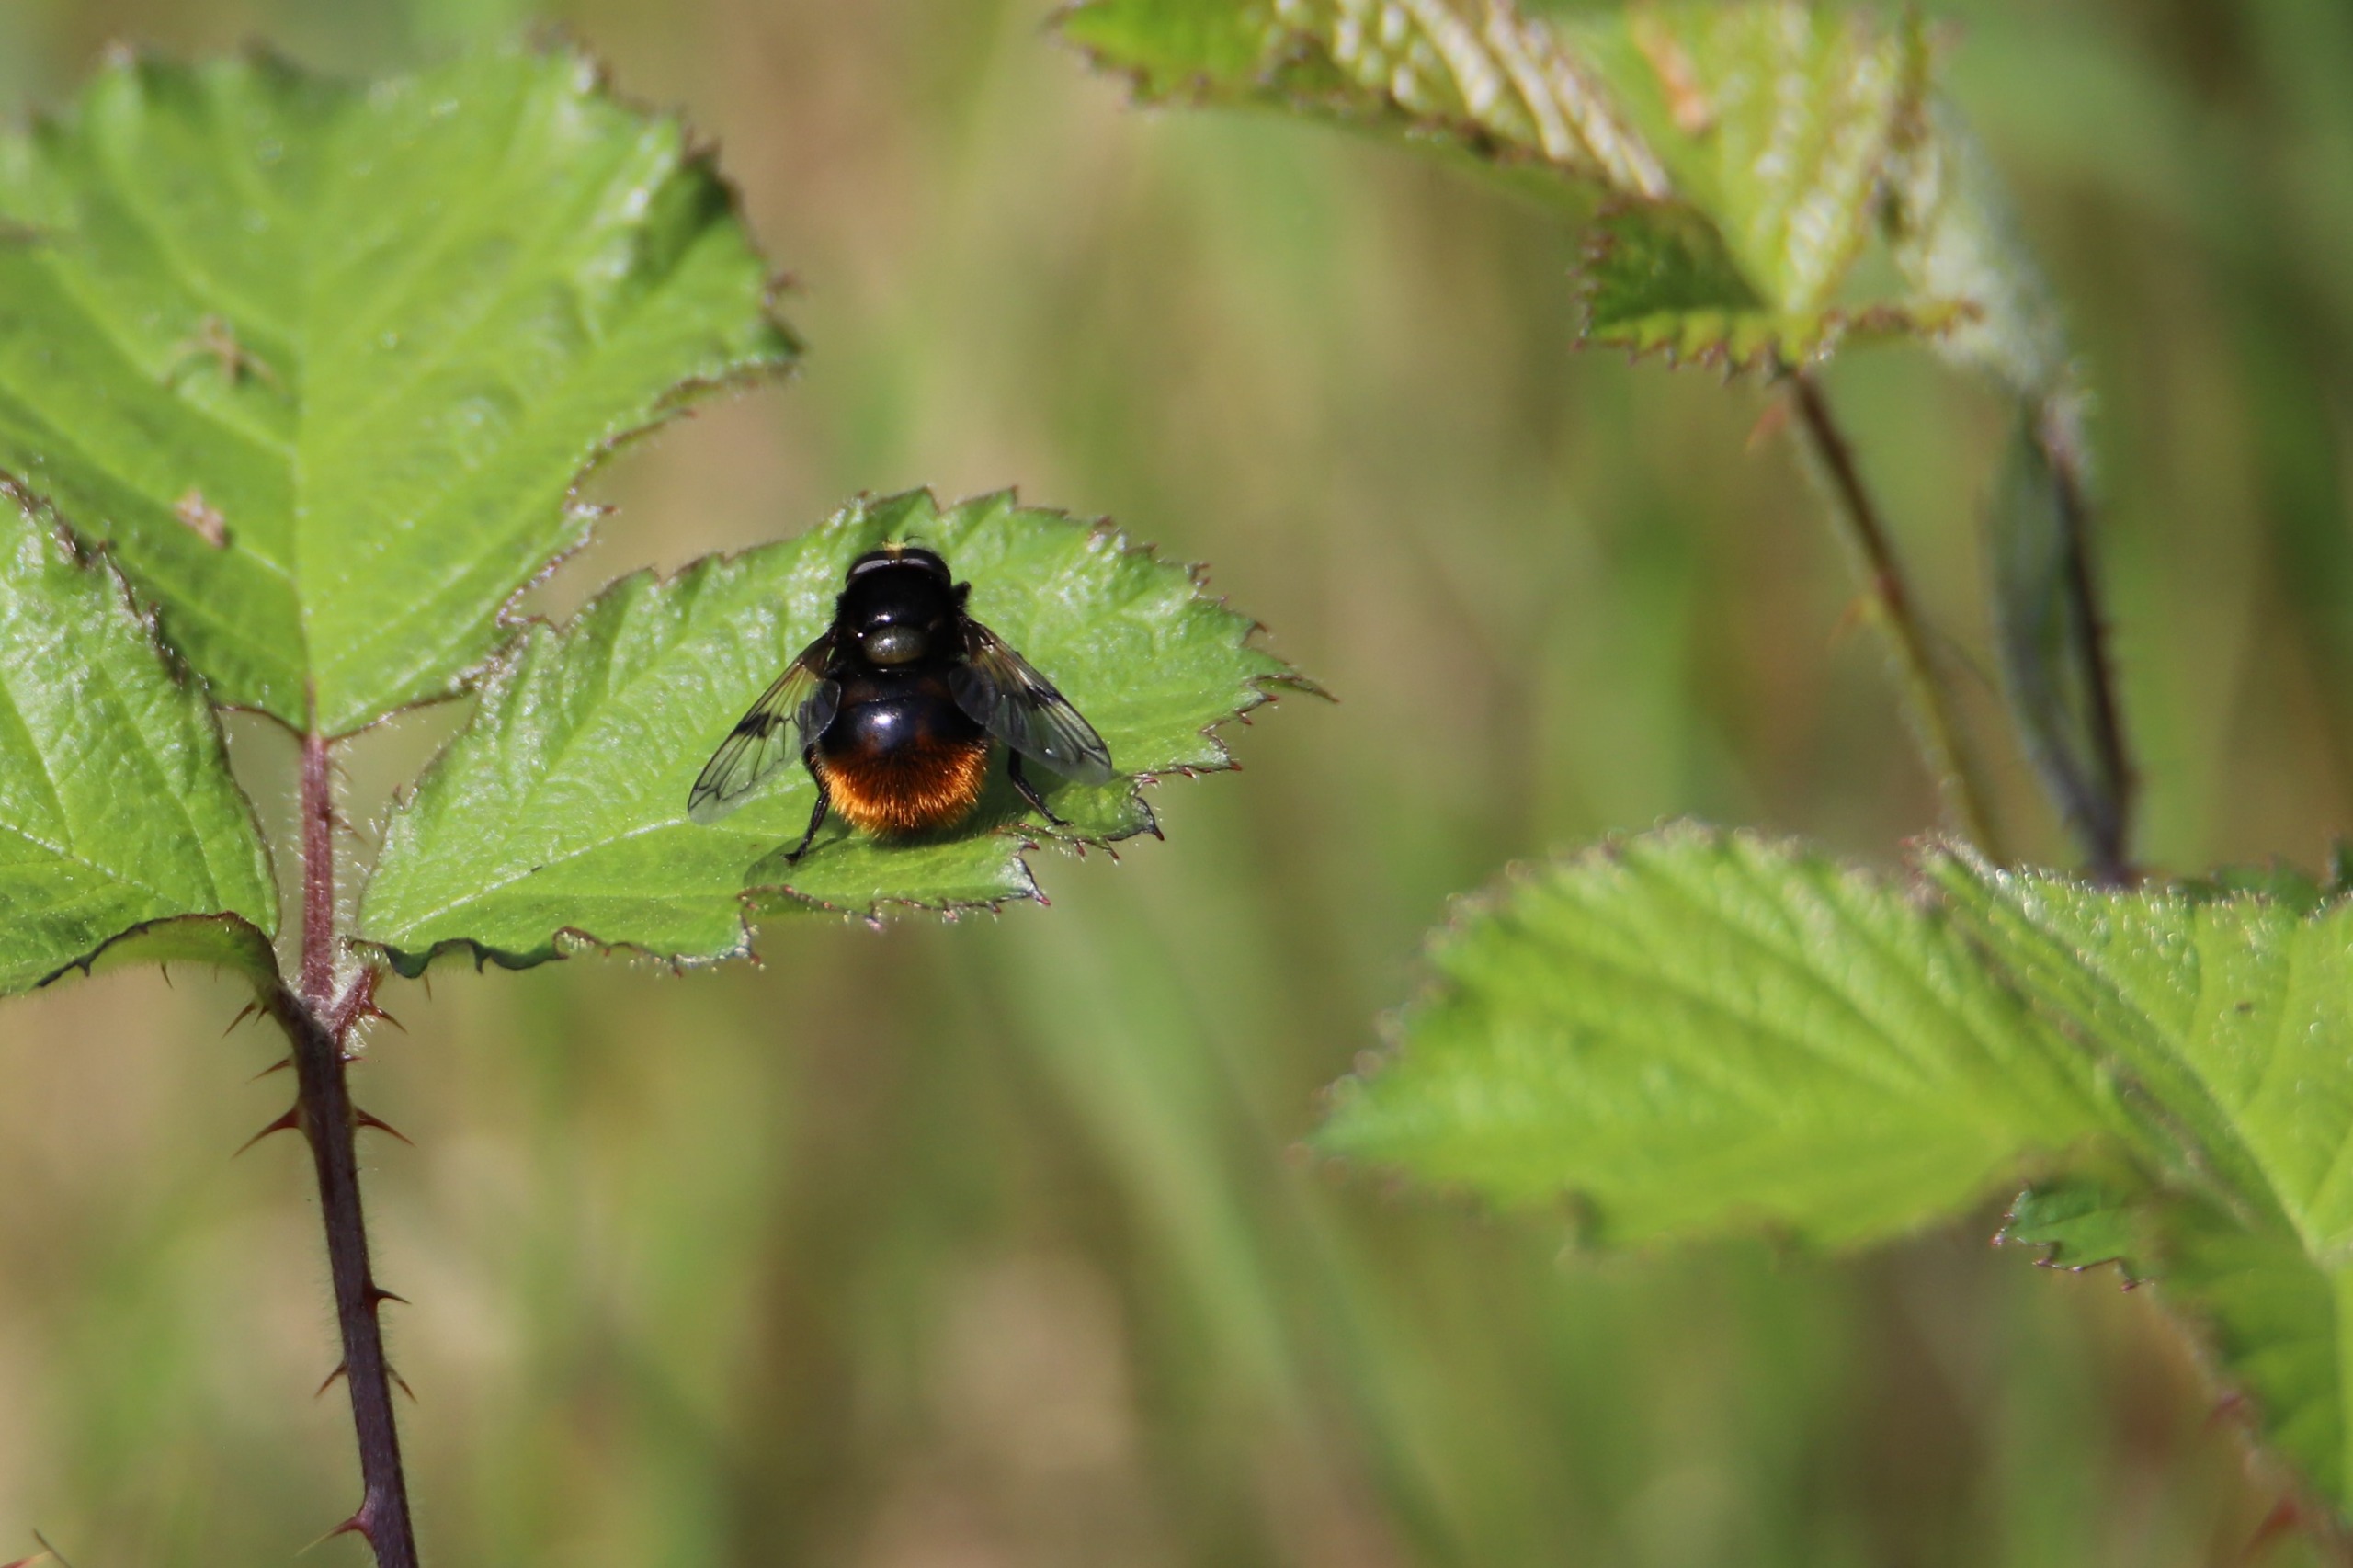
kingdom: Animalia
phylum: Arthropoda
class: Insecta
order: Diptera
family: Syrphidae
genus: Volucella
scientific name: Volucella bombylans
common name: Foranderlig humlesvirreflue
